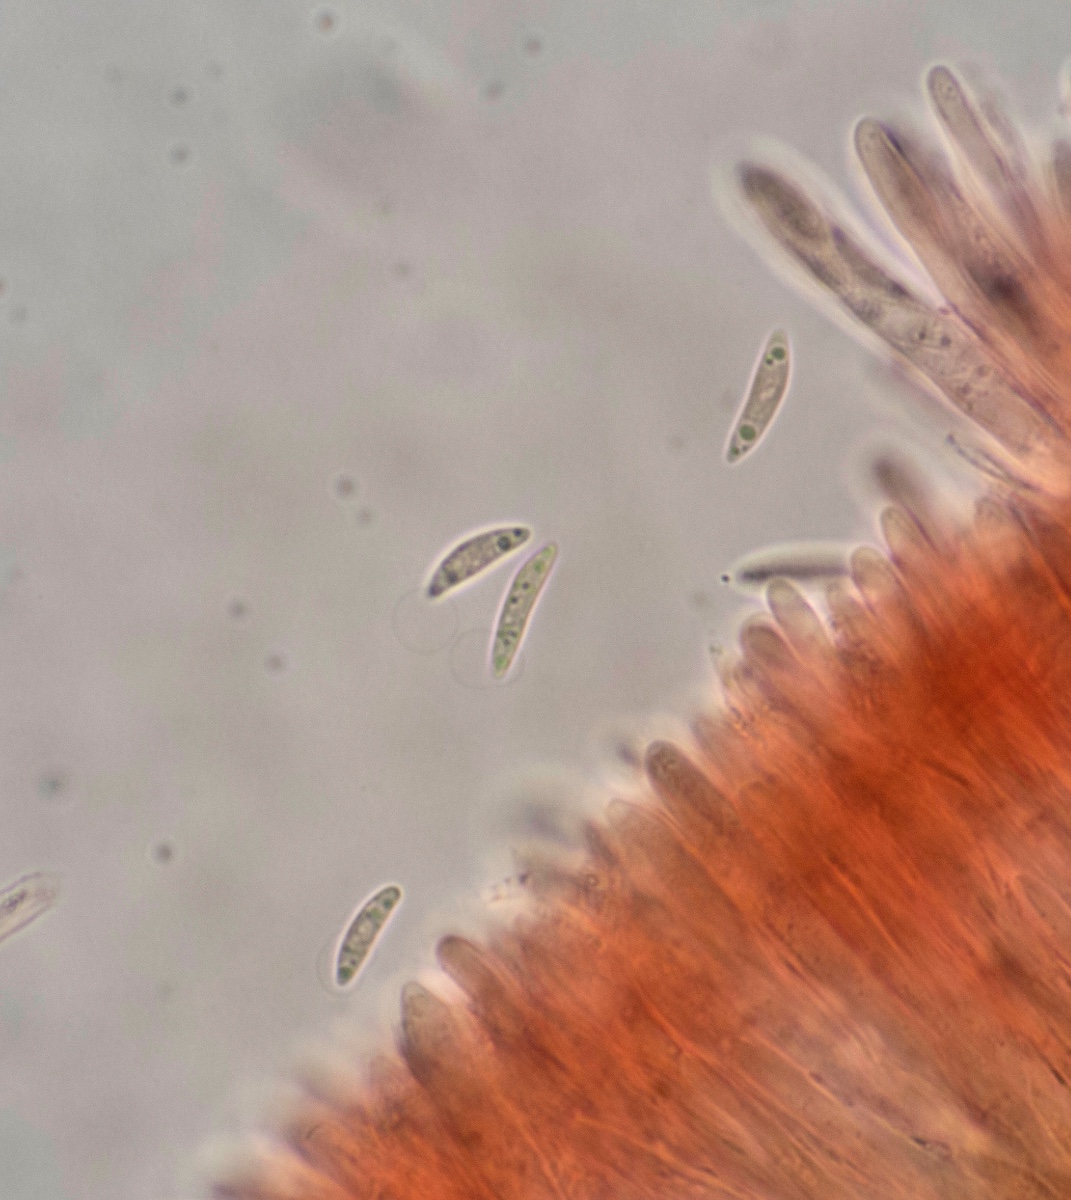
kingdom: Fungi
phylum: Ascomycota
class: Leotiomycetes
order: Helotiales
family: Cenangiaceae
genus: Heyderia
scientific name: Heyderia cucullata
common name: nåle-sækhue
